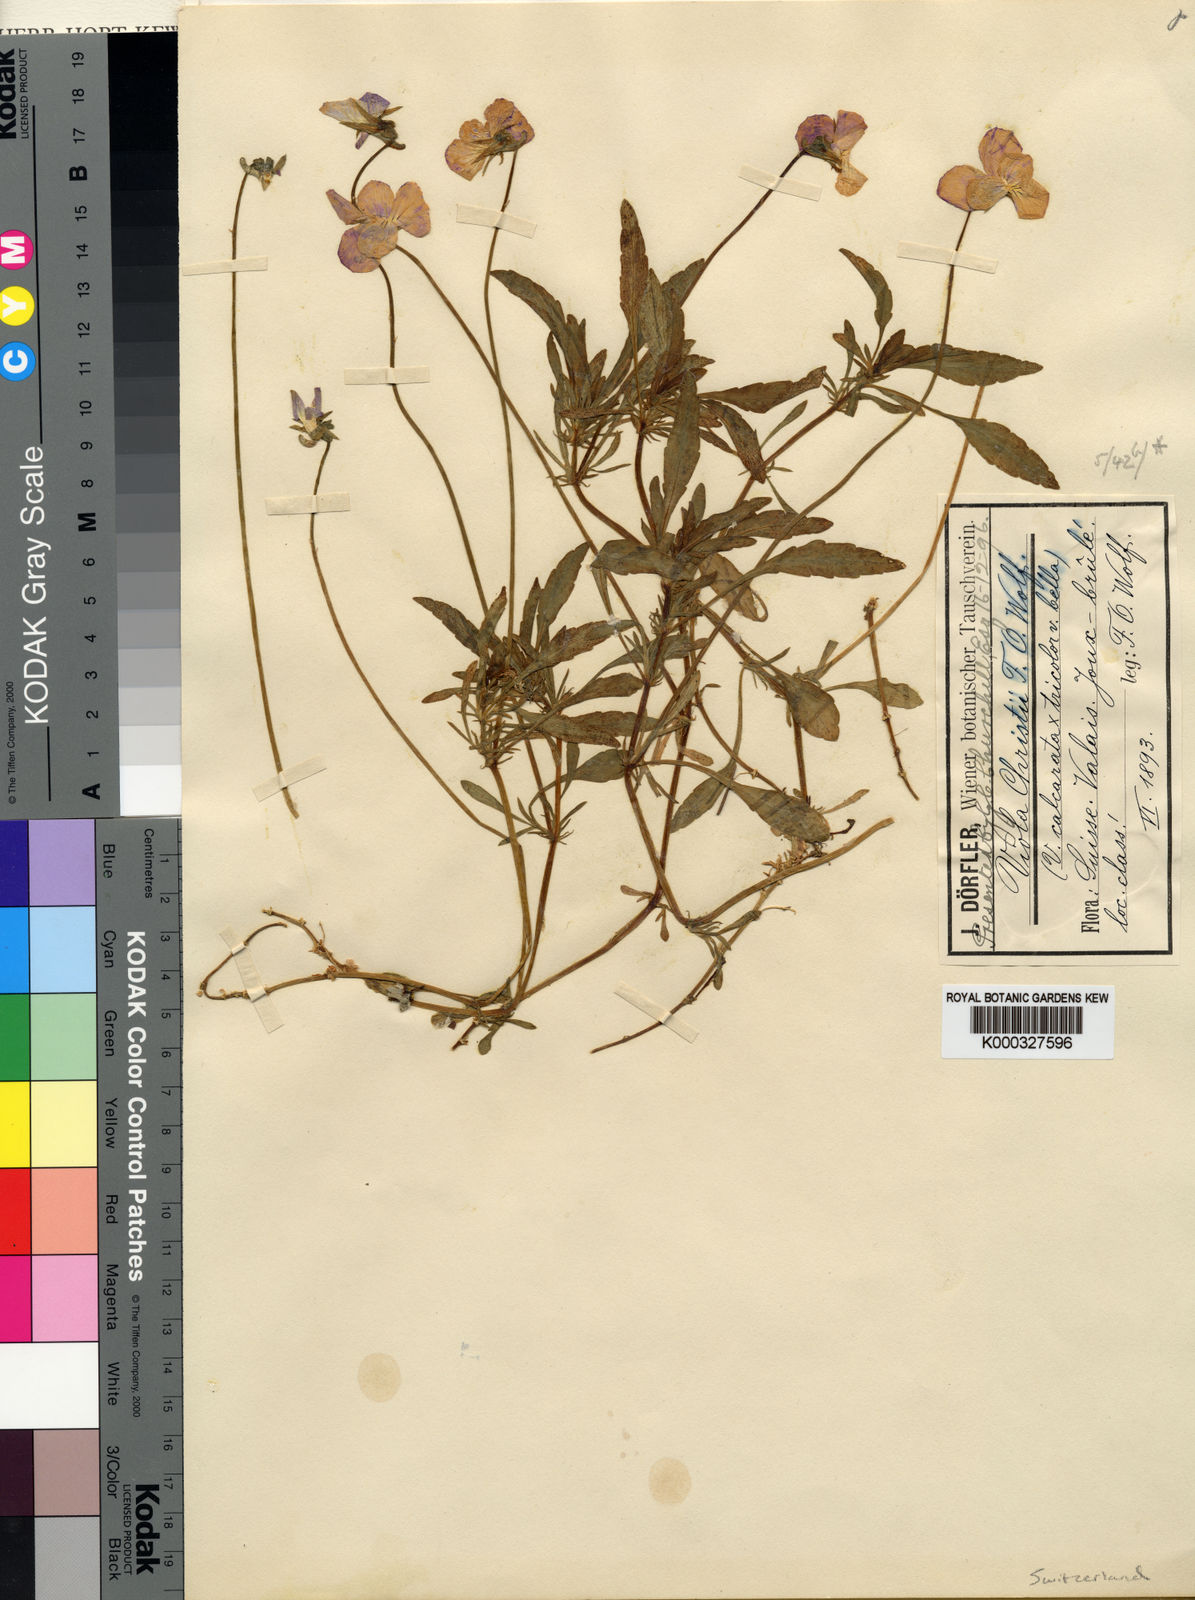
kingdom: Plantae
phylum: Tracheophyta
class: Magnoliopsida
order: Malpighiales
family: Violaceae
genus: Viola
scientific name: Viola calcarata
